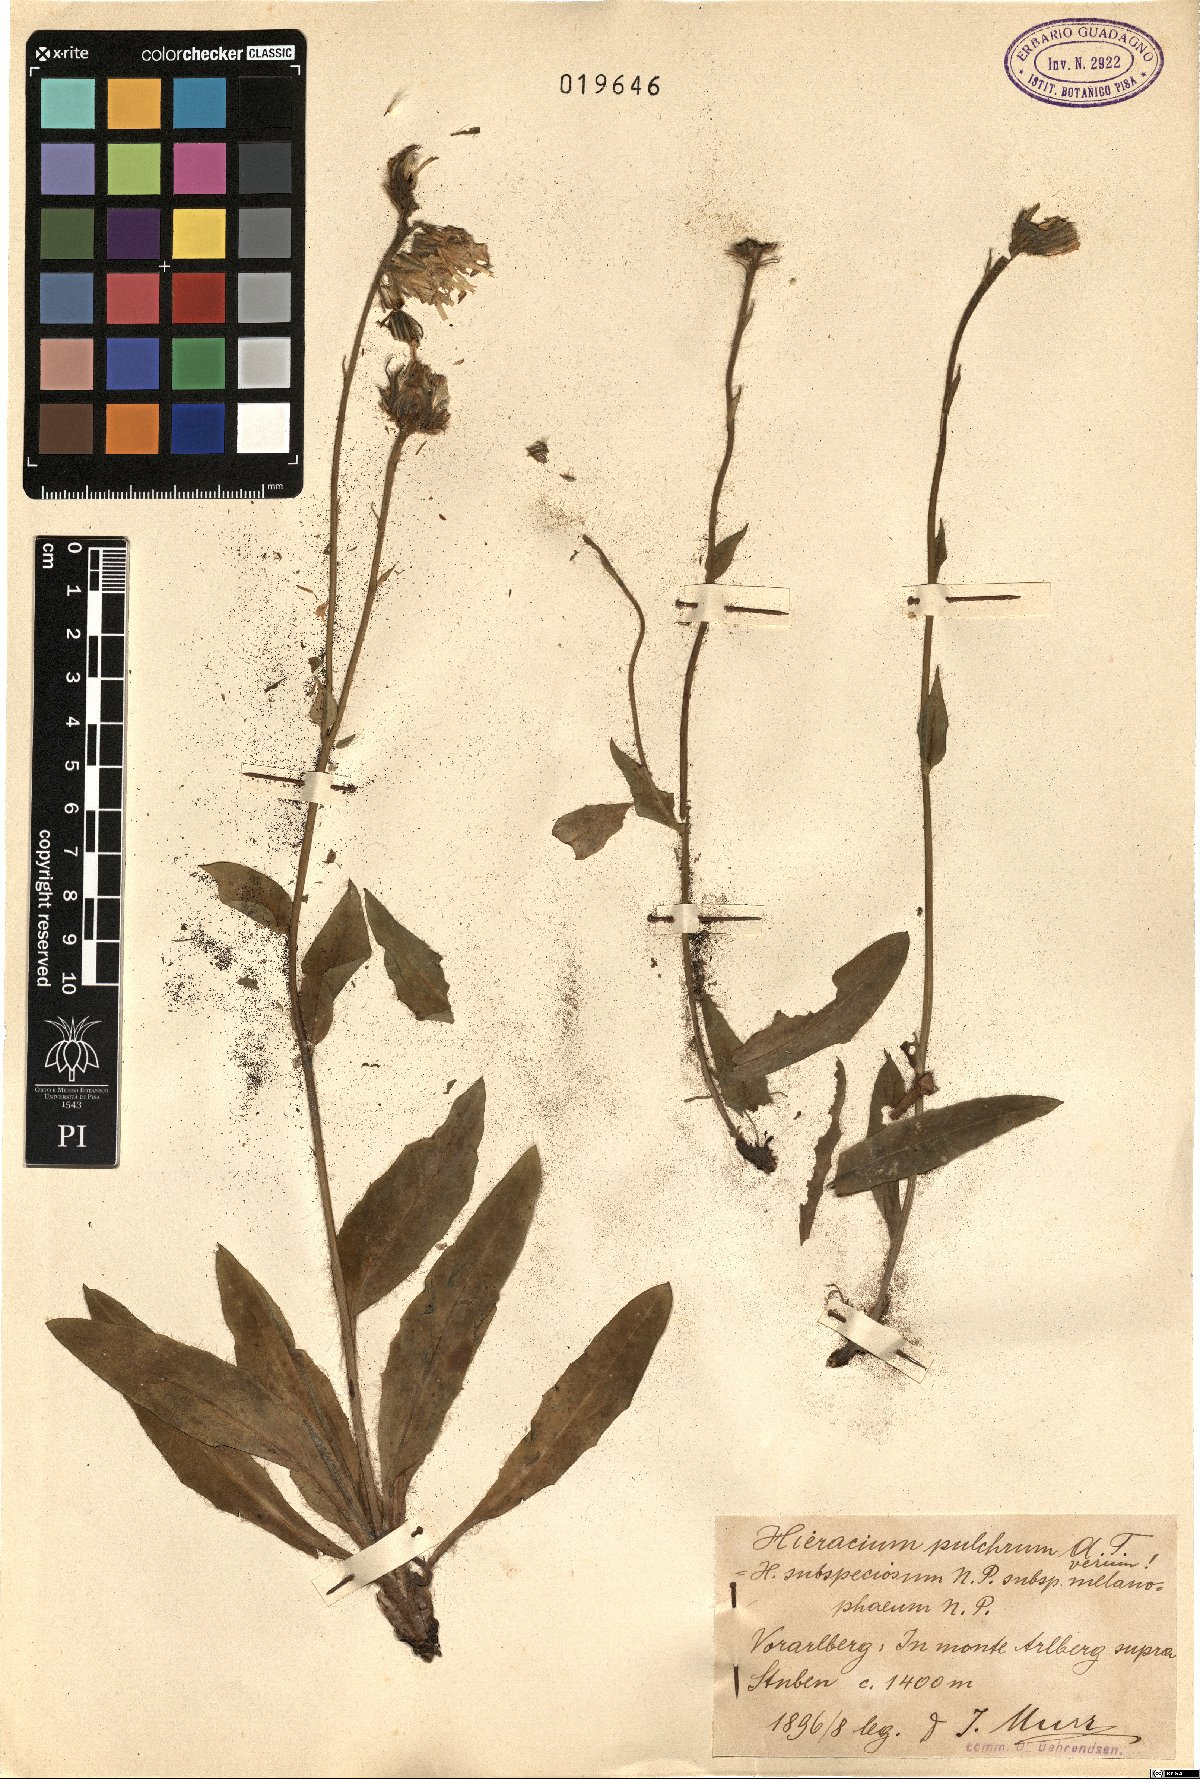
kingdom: Plantae
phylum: Tracheophyta
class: Magnoliopsida
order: Asterales
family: Asteraceae
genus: Hieracium
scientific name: Hieracium subspeciosum
